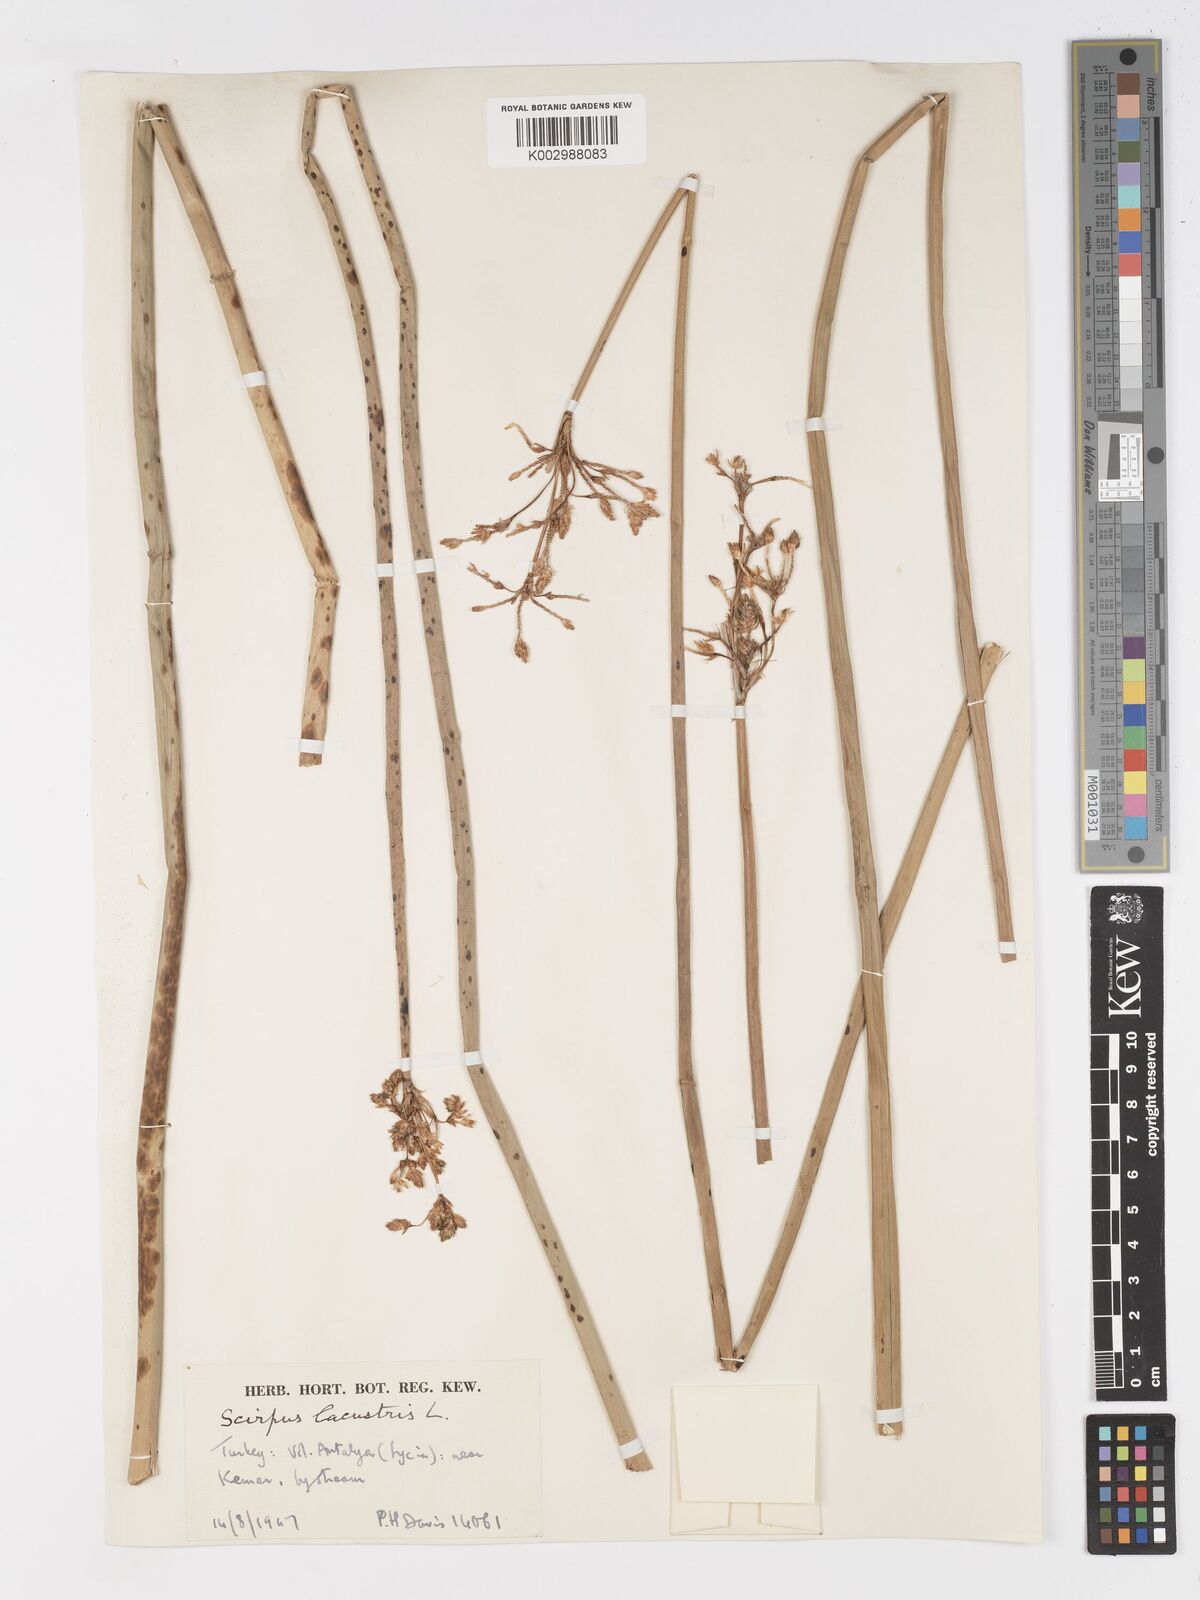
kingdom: Plantae
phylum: Tracheophyta
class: Liliopsida
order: Poales
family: Cyperaceae
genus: Schoenoplectus
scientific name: Schoenoplectus lacustris
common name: Common club-rush
